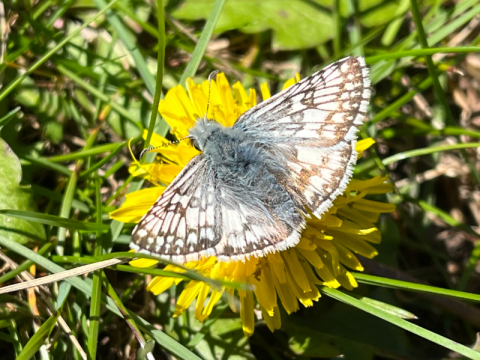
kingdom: Animalia
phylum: Arthropoda
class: Insecta
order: Lepidoptera
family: Hesperiidae
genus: Pyrgus
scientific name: Pyrgus communis
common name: Common Checkered-Skipper
